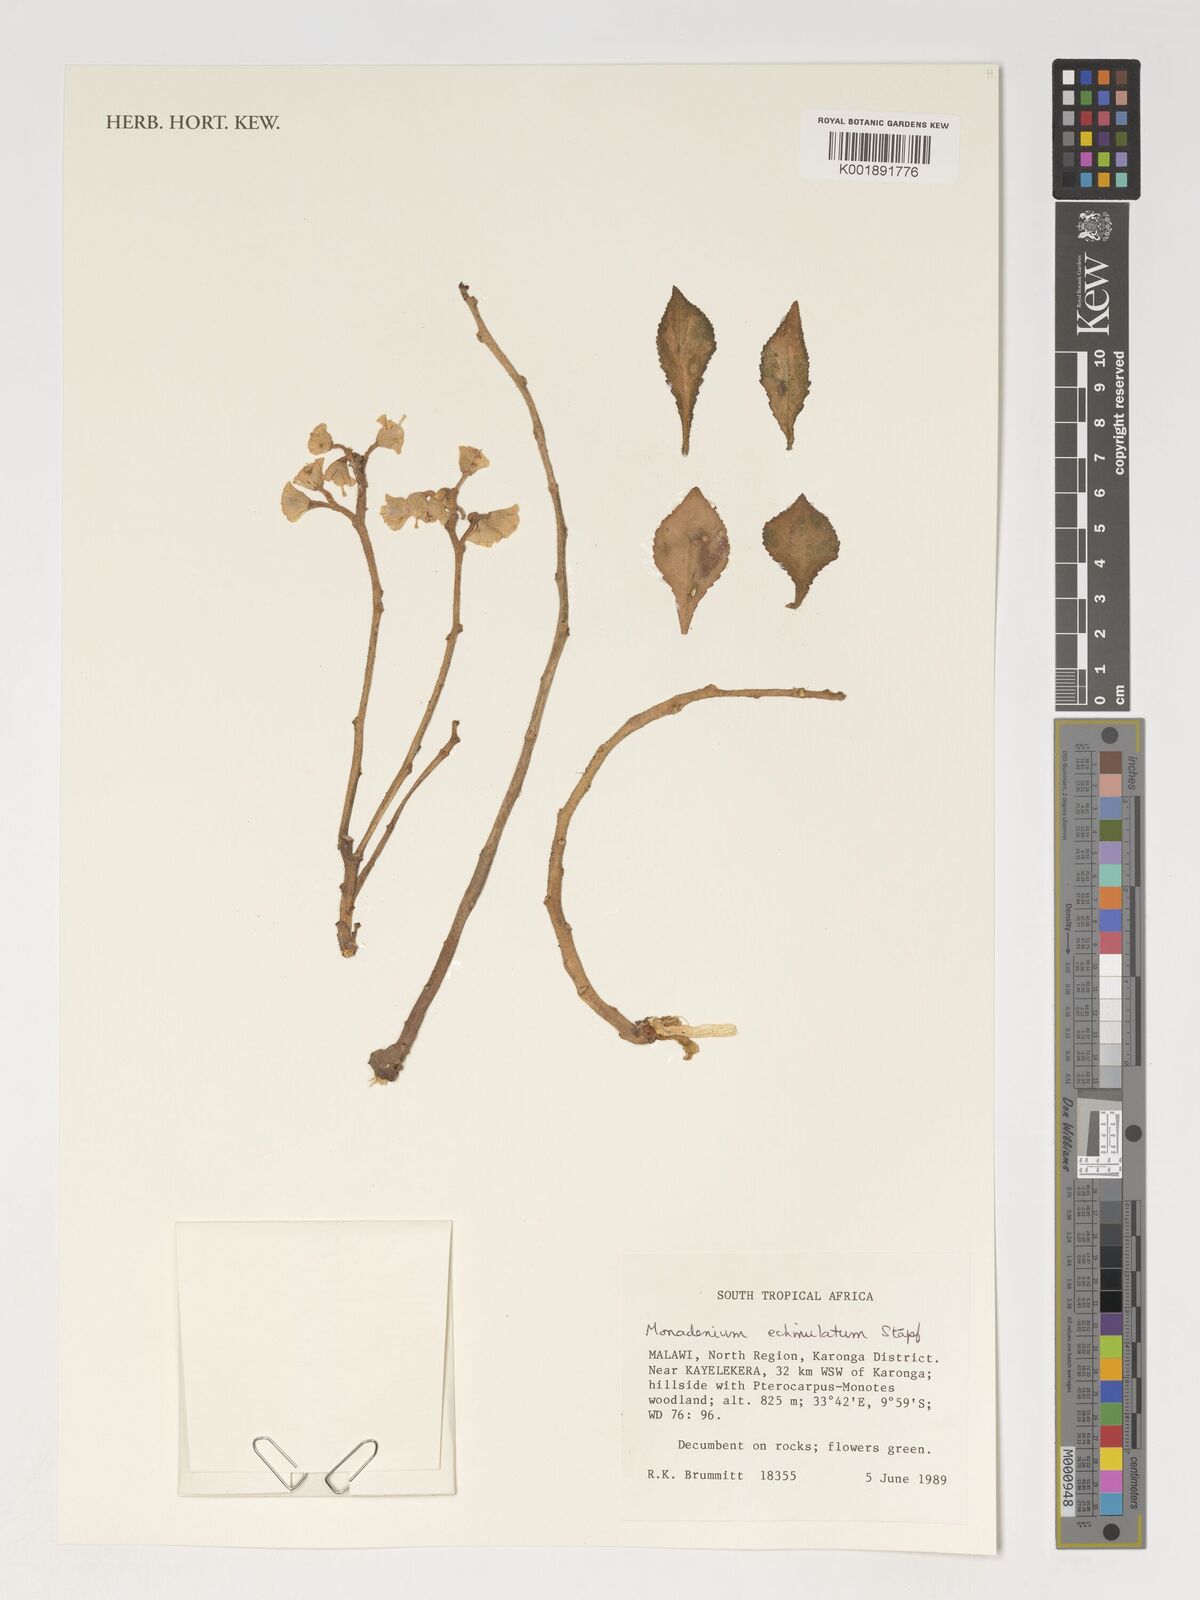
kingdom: Plantae
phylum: Tracheophyta
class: Magnoliopsida
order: Malpighiales
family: Euphorbiaceae
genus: Euphorbia
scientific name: Euphorbia echinulata
